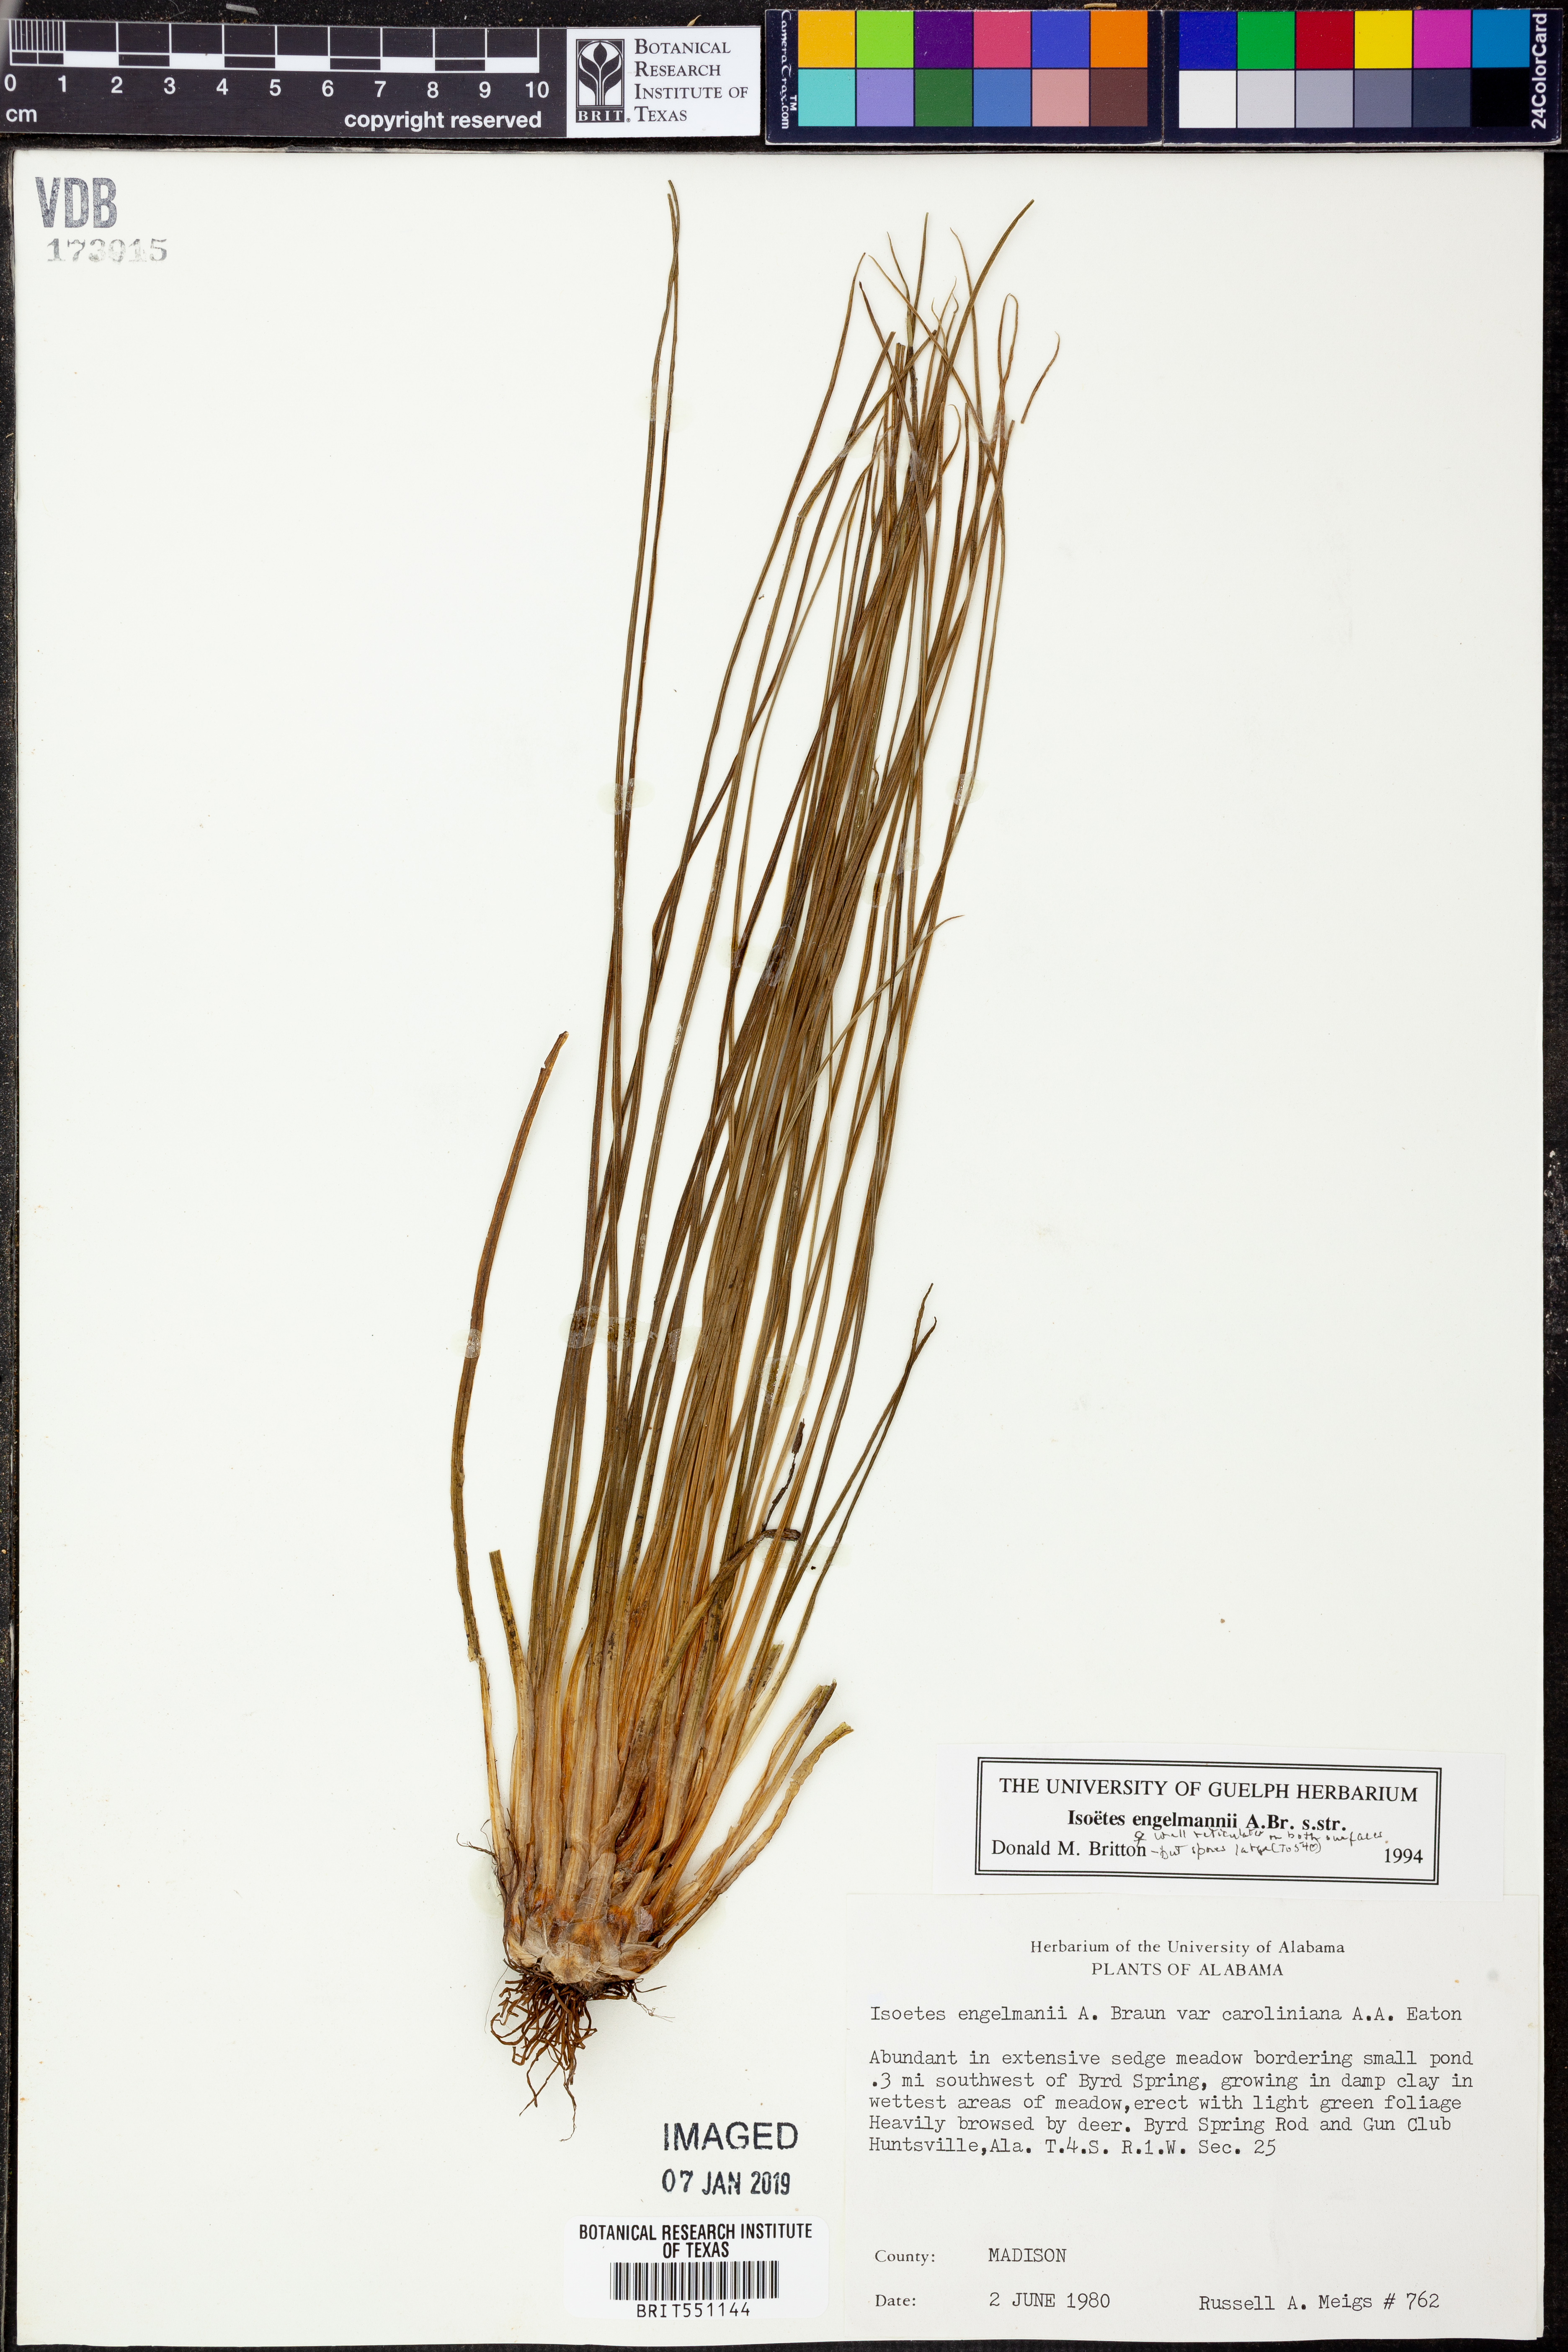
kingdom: Plantae
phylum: Tracheophyta
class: Lycopodiopsida
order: Isoetales
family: Isoetaceae
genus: Isoetes
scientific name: Isoetes engelmannii
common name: Engelmann's quillwort
